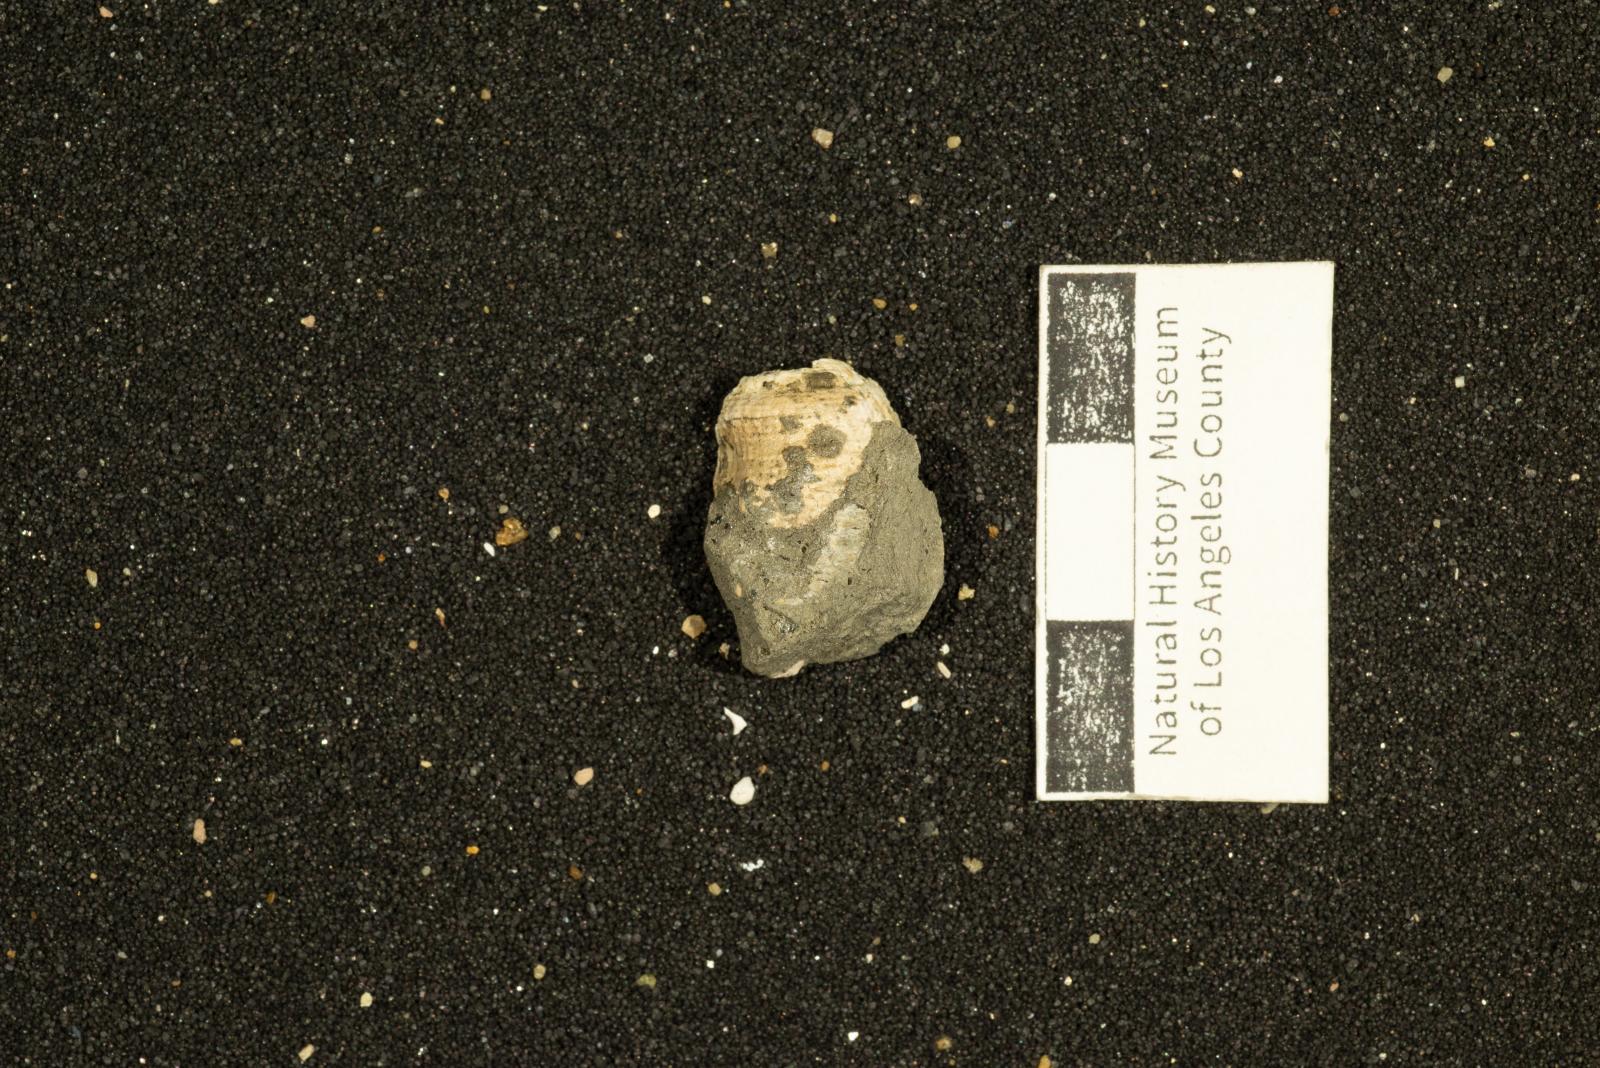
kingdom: Animalia
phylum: Mollusca
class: Gastropoda
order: Neogastropoda
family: Perissityidae
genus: Perissitys
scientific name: Perissitys colocara
